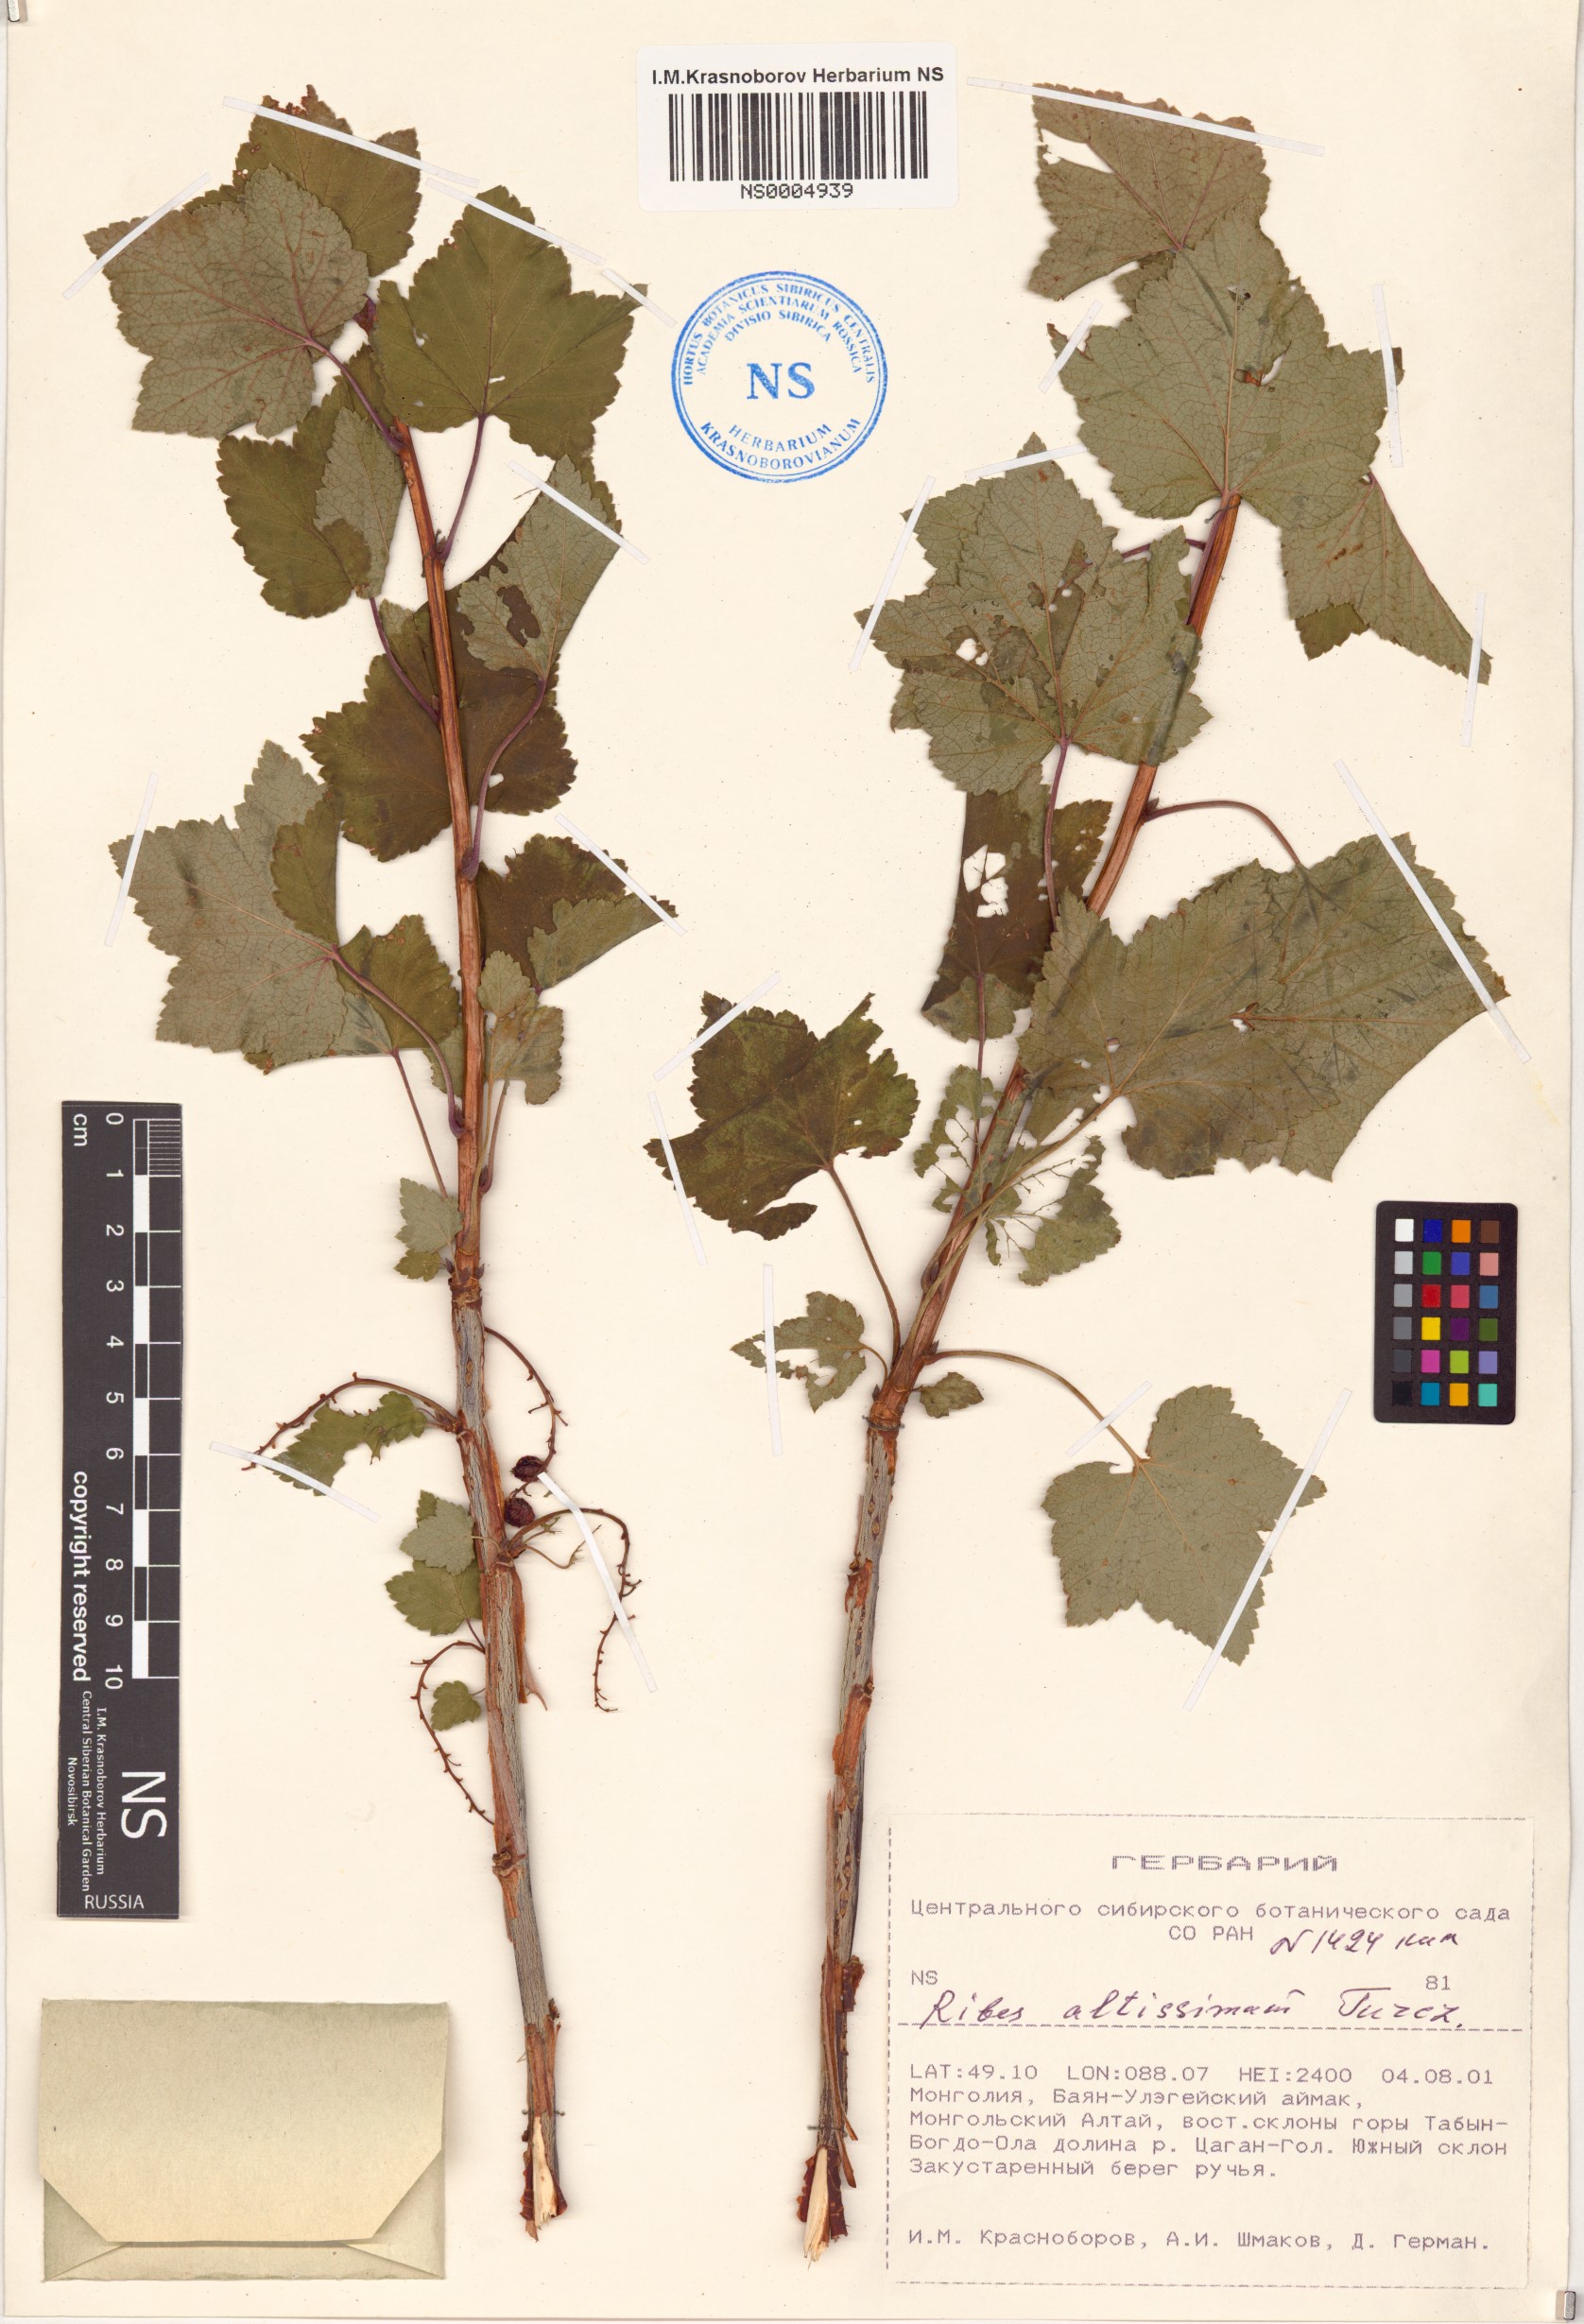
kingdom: Plantae
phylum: Tracheophyta
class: Magnoliopsida
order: Saxifragales
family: Grossulariaceae
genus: Ribes
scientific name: Ribes petraeum
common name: Rock currant
